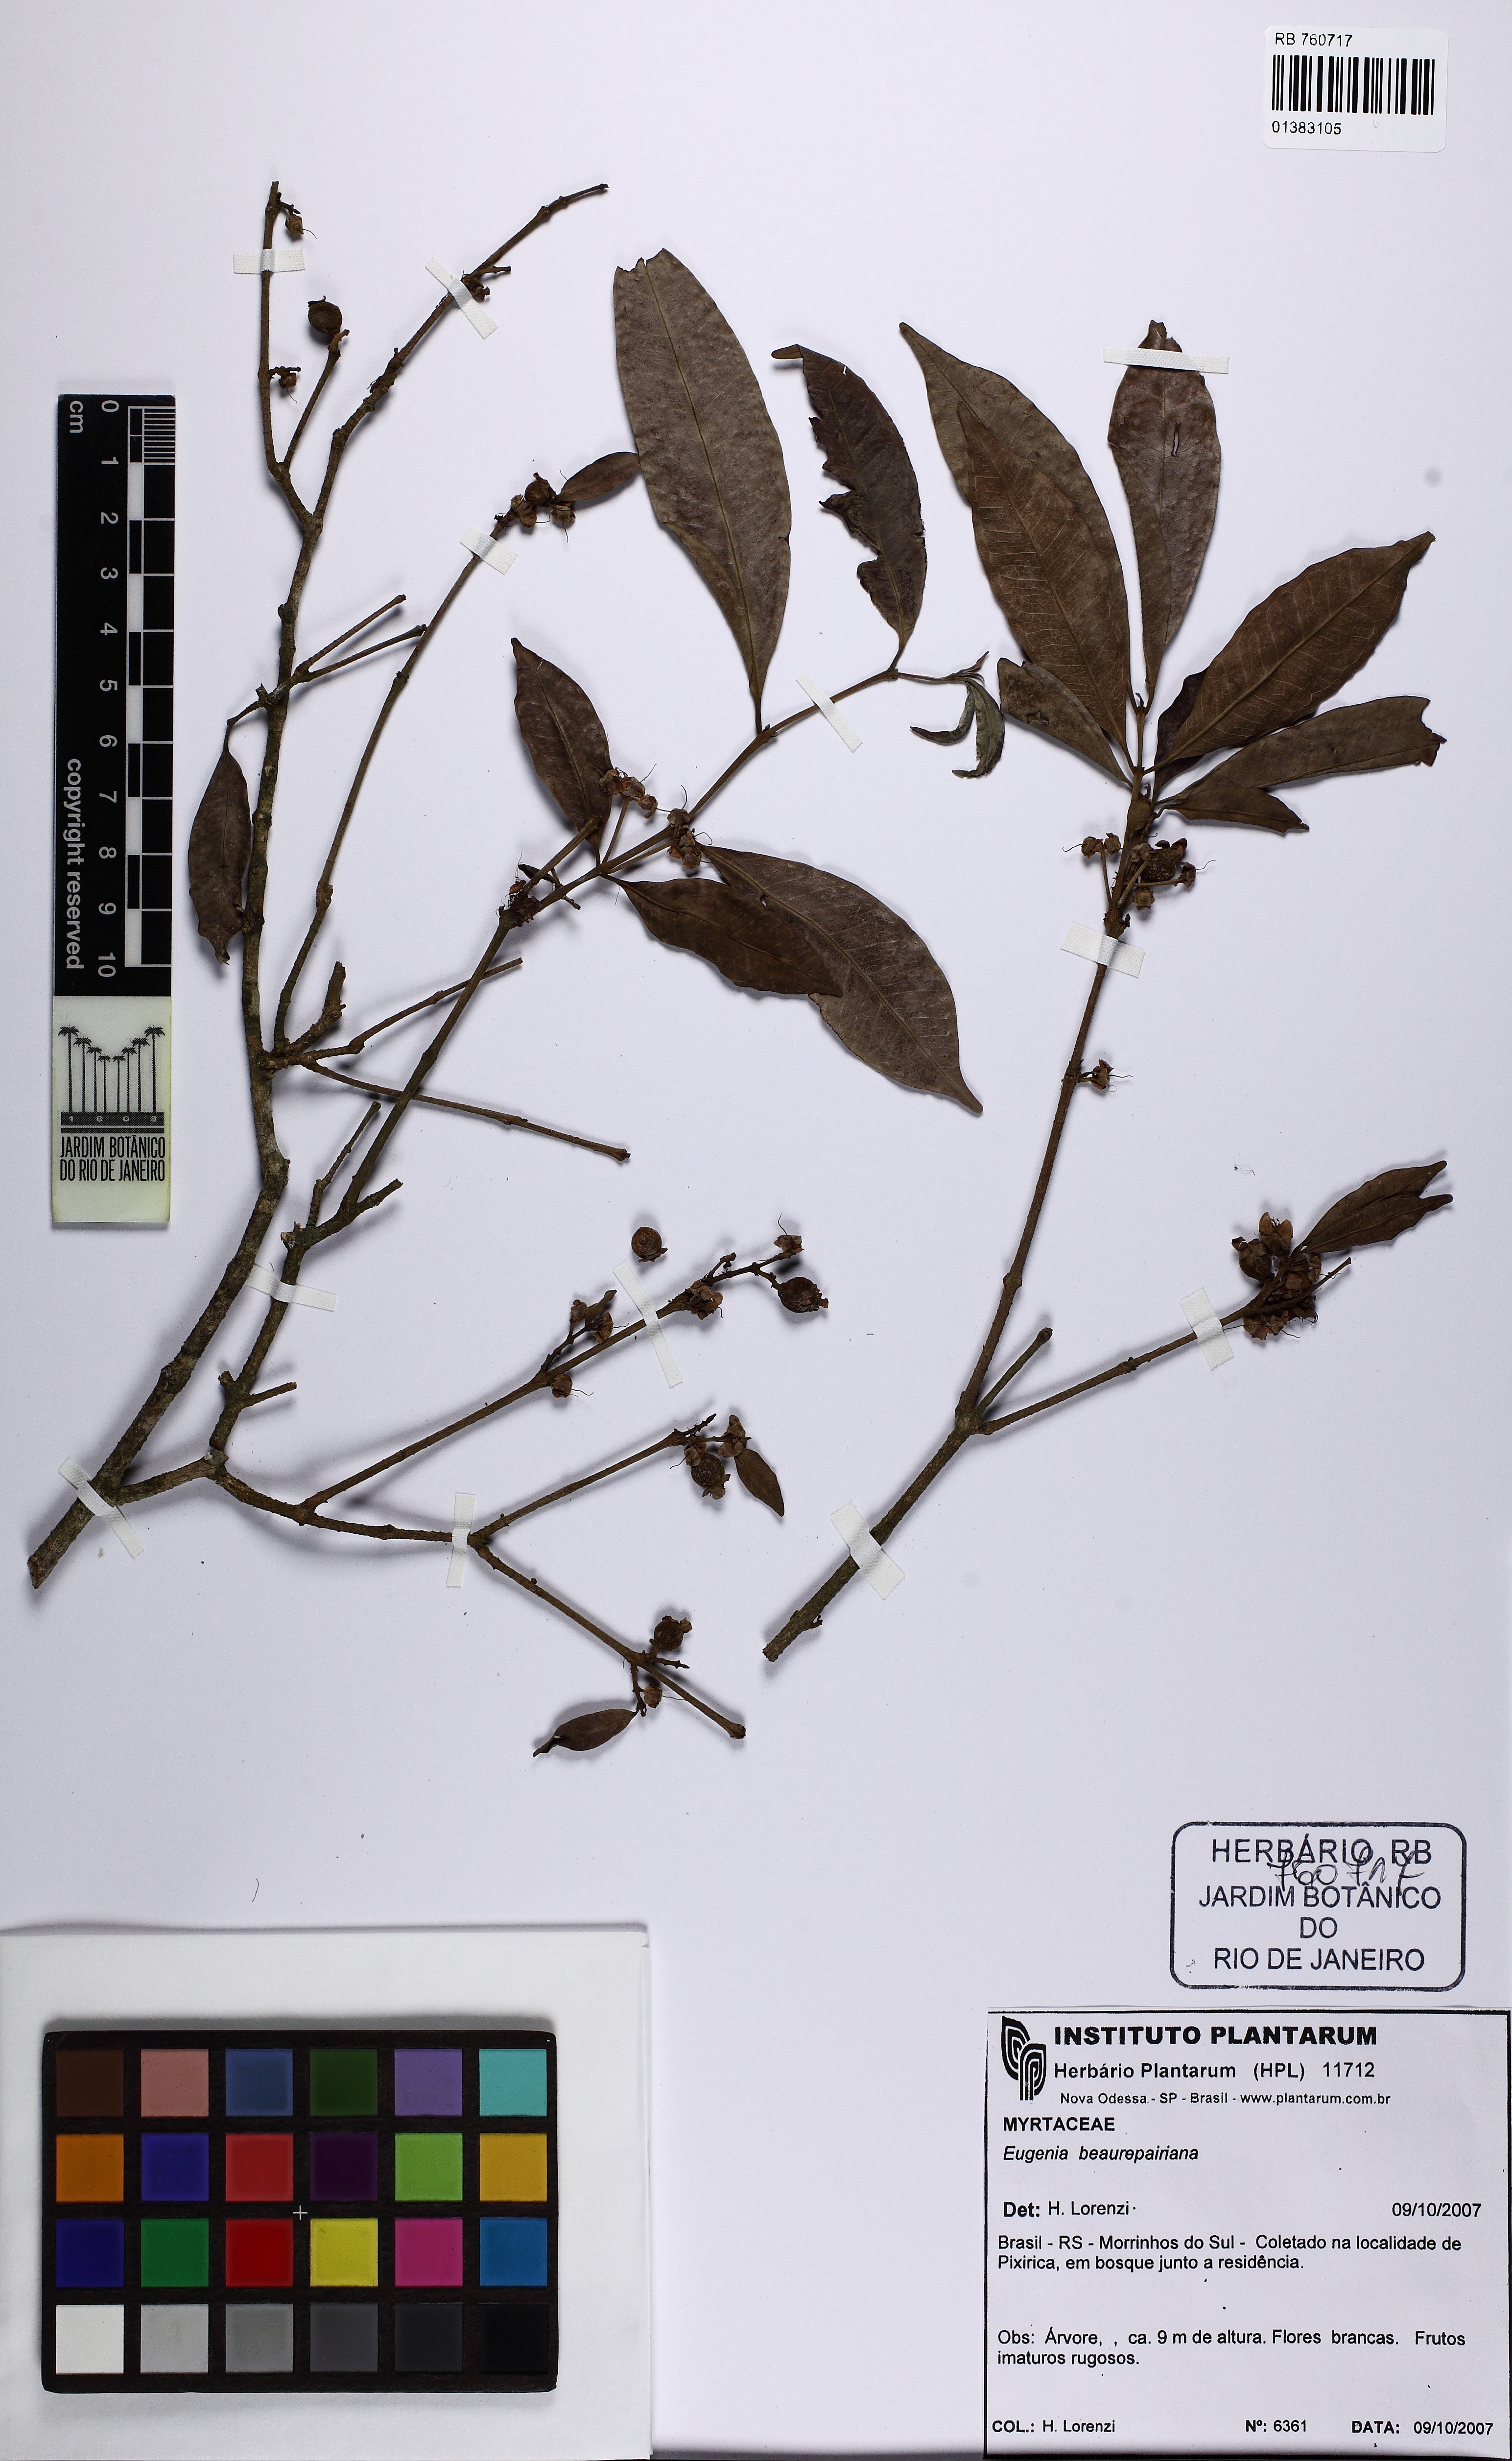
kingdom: Plantae
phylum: Tracheophyta
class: Magnoliopsida
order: Myrtales
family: Myrtaceae
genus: Eugenia
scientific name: Eugenia ternatifolia
